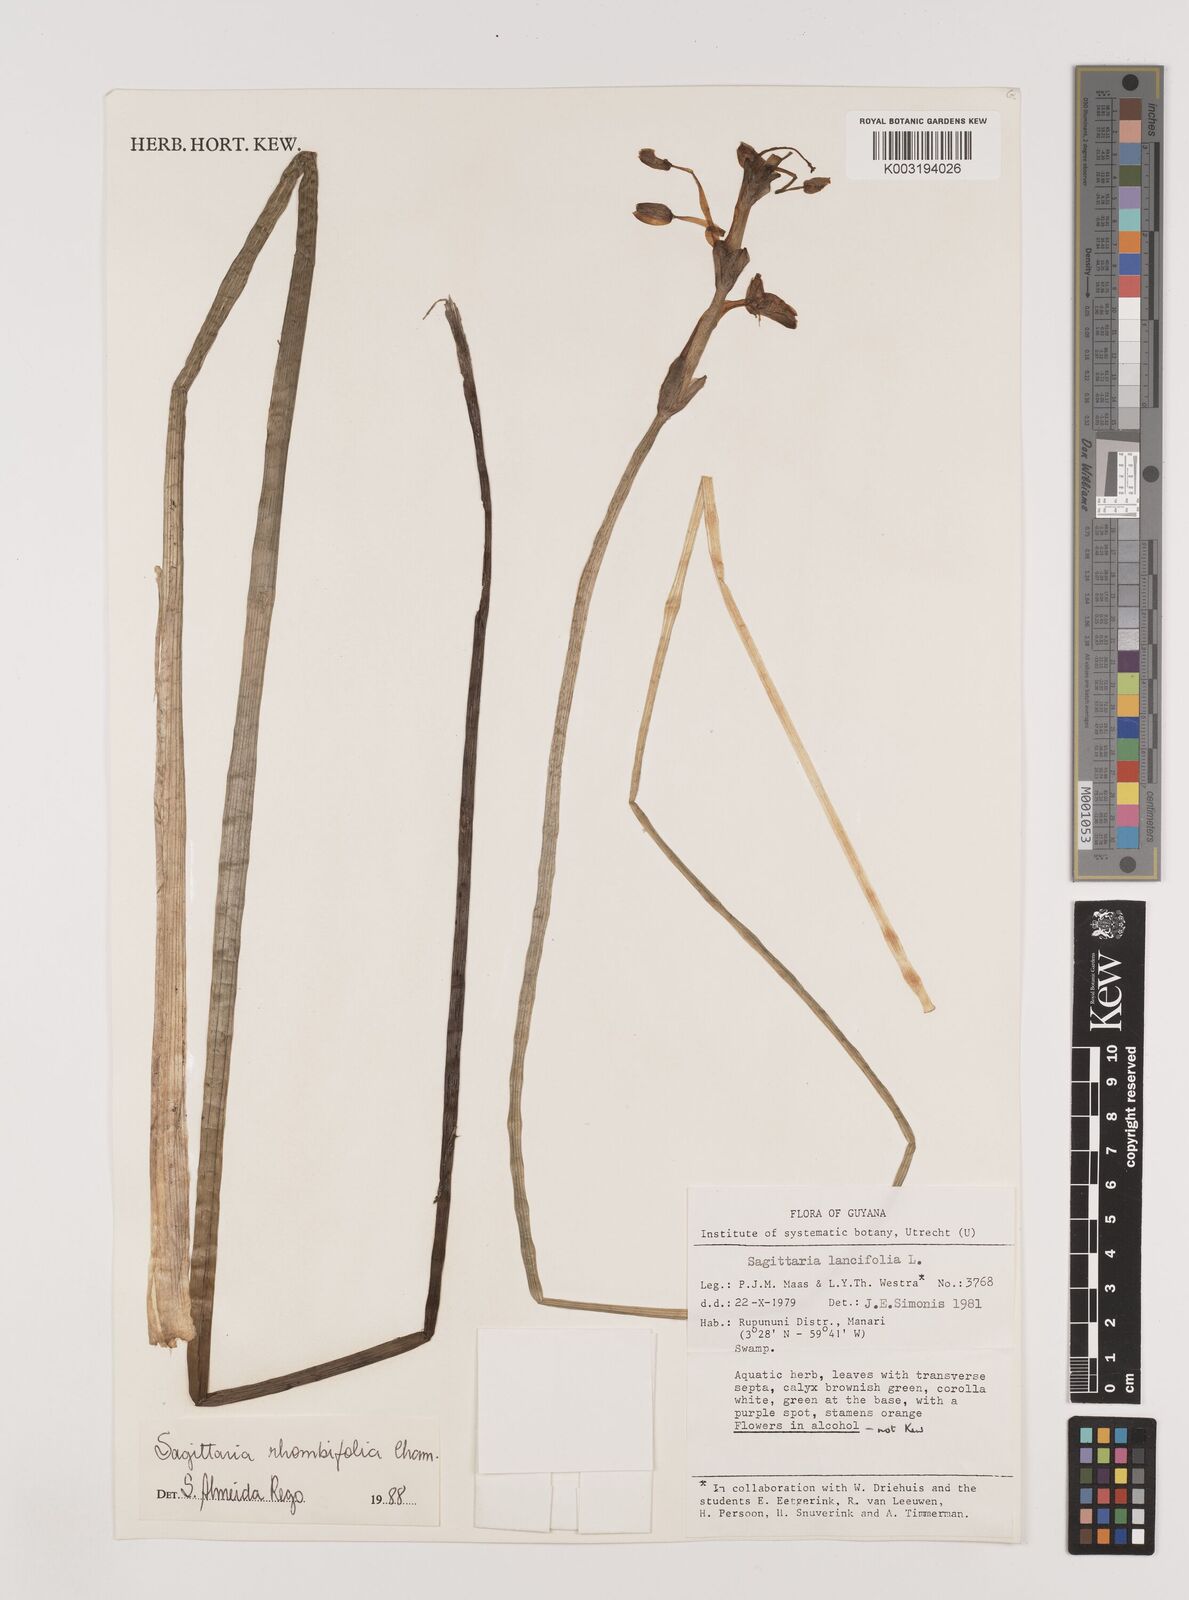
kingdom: Plantae
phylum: Tracheophyta
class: Liliopsida
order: Alismatales
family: Alismataceae
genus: Sagittaria
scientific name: Sagittaria rhombifolia
